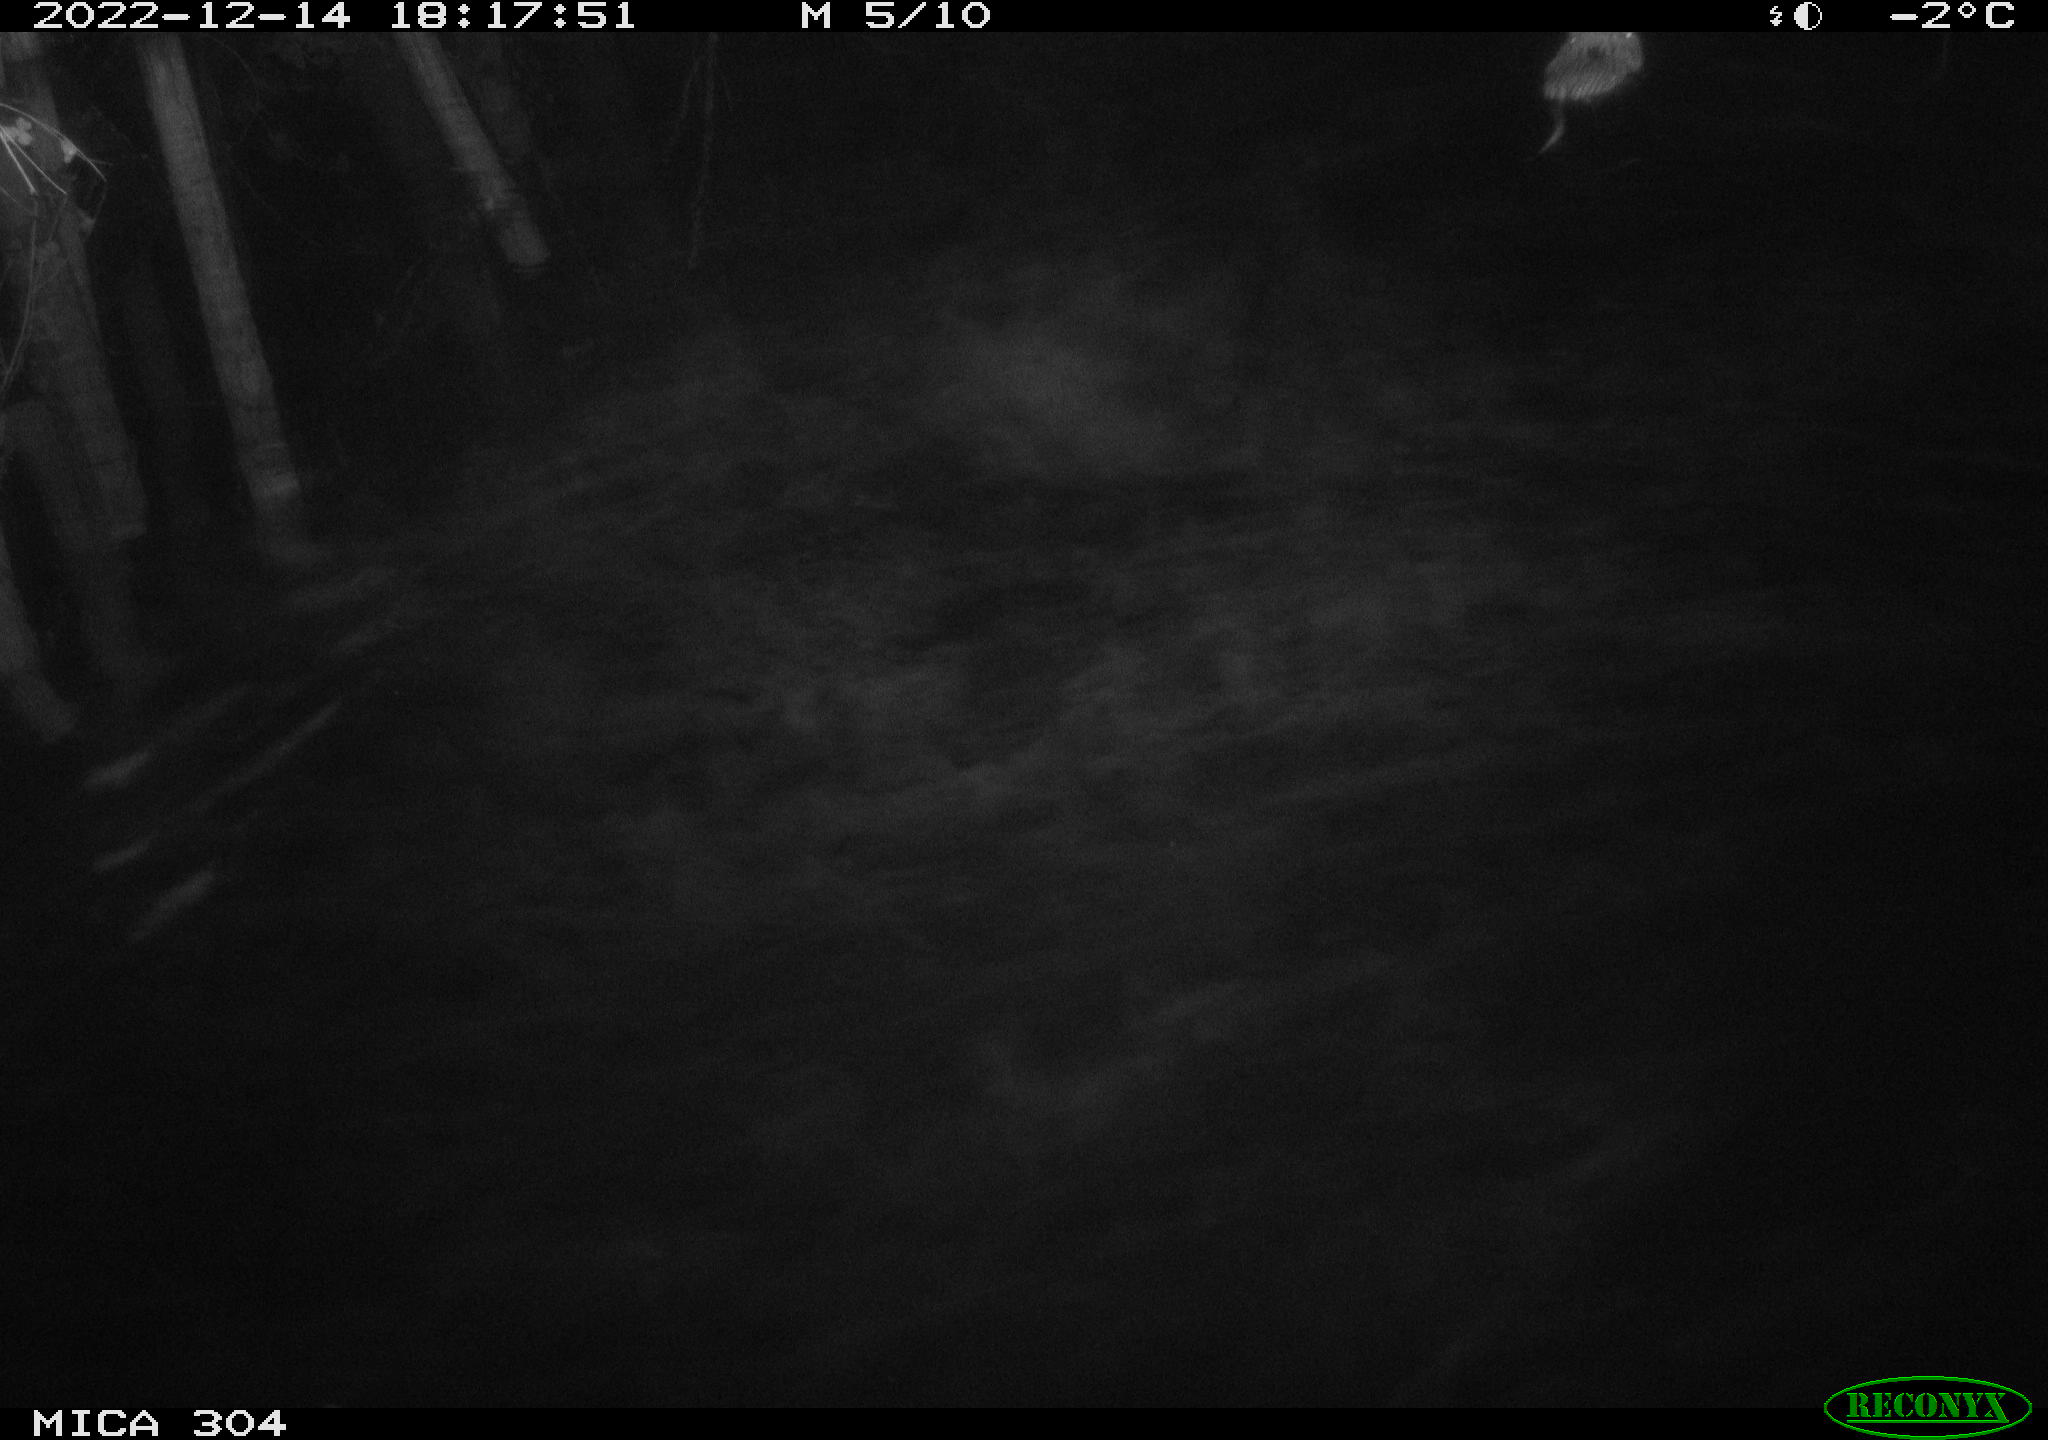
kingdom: Animalia
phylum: Chordata
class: Mammalia
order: Rodentia
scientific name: Rodentia
